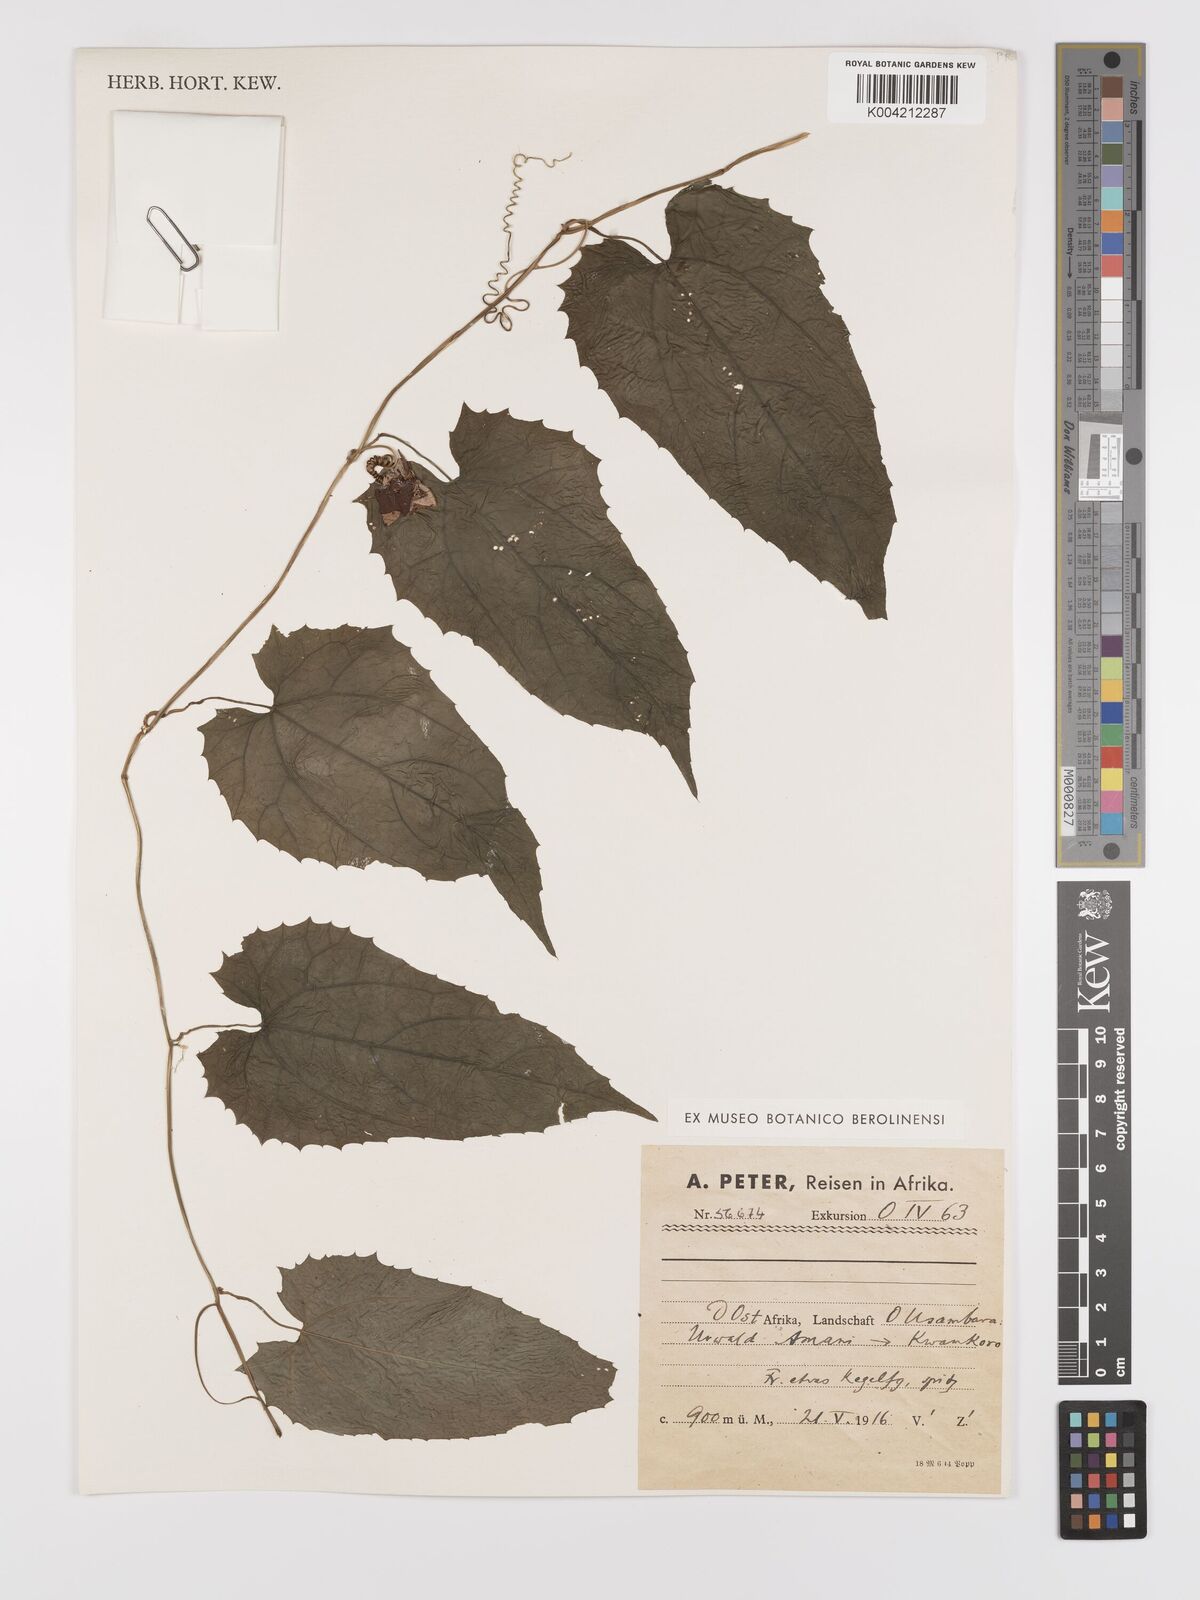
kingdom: Plantae
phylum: Tracheophyta
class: Magnoliopsida
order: Cucurbitales
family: Cucurbitaceae
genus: Kedrostis
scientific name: Kedrostis heterophylla
